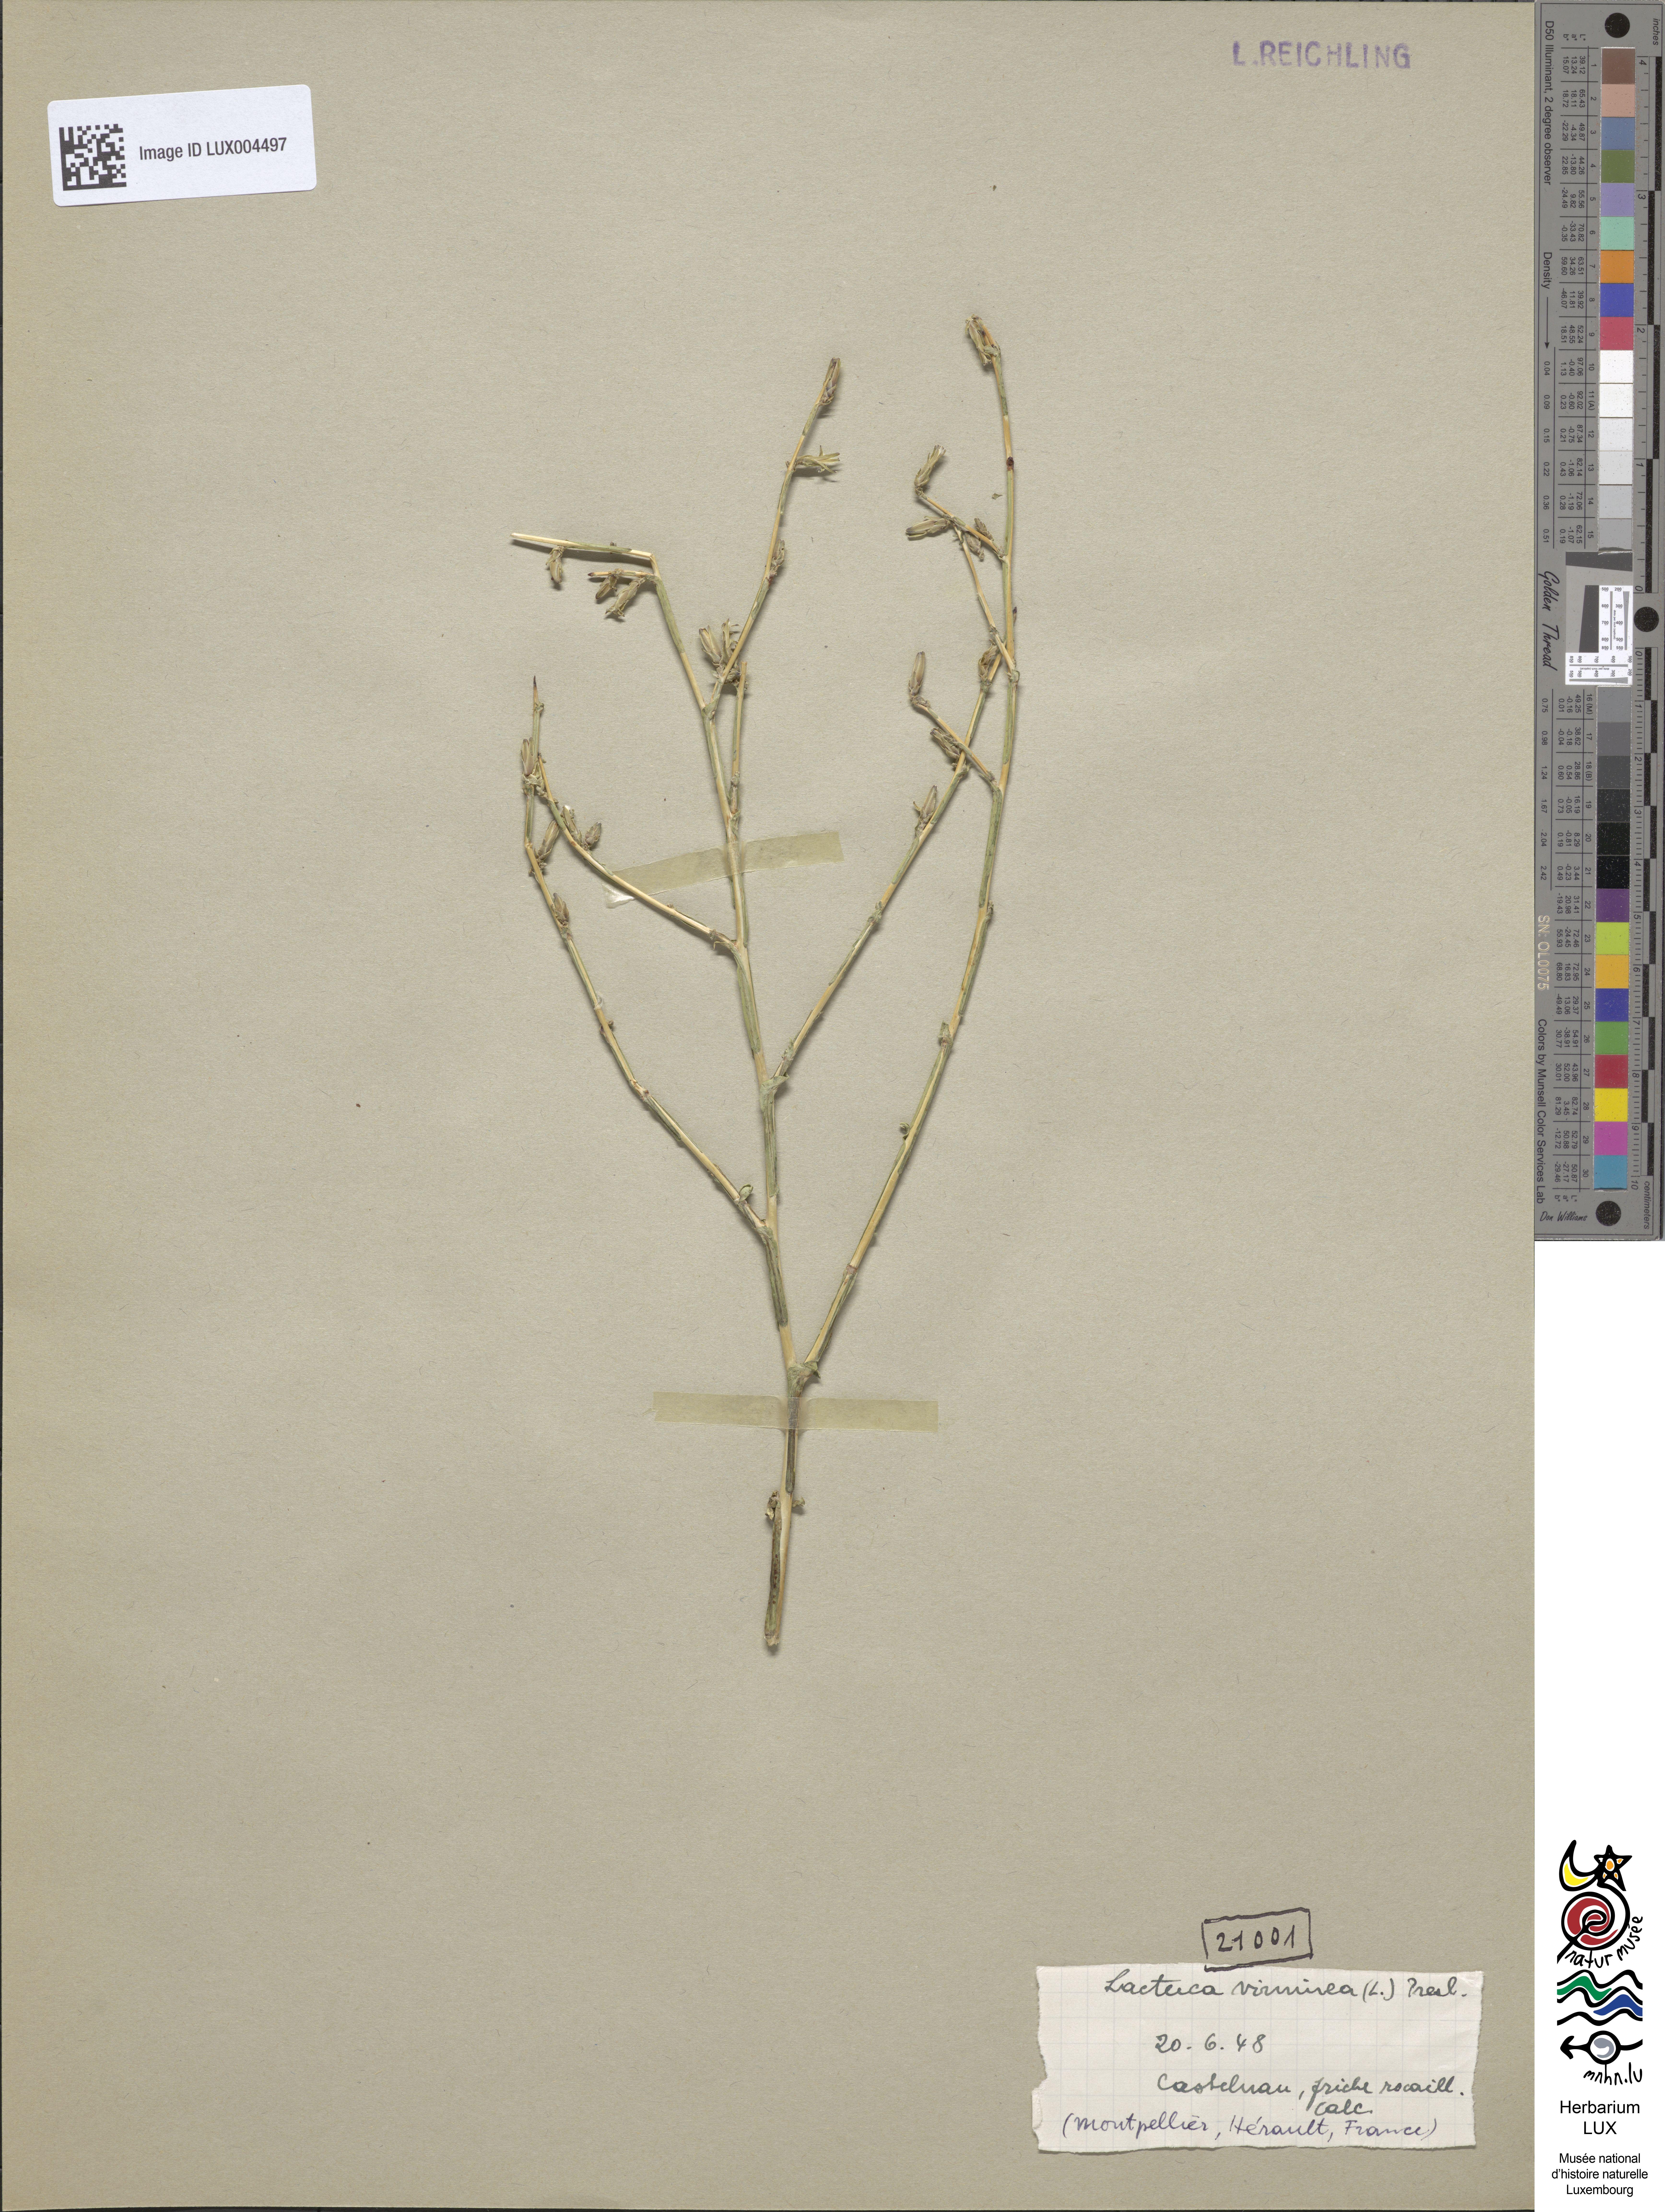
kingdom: Plantae
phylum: Tracheophyta
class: Magnoliopsida
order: Asterales
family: Asteraceae
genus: Lactuca
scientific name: Lactuca viminea
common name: Pliant lettuce
